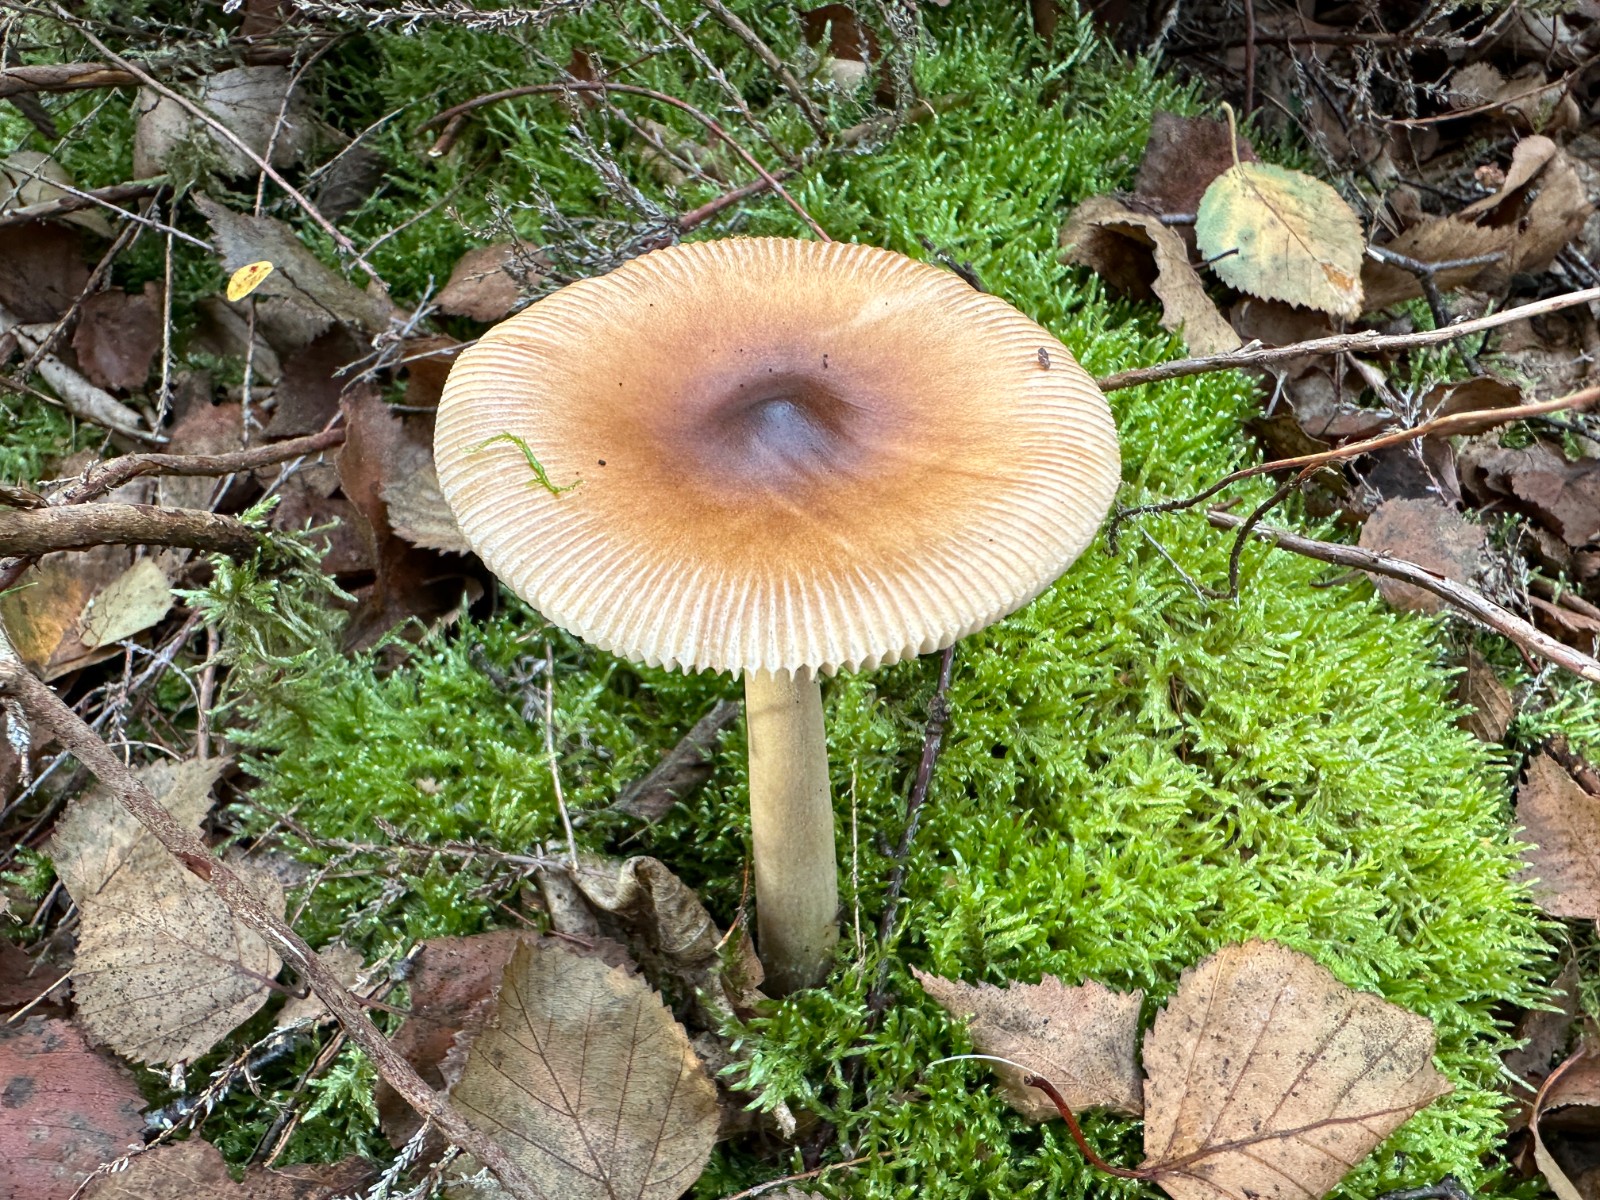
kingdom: Fungi
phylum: Basidiomycota
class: Agaricomycetes
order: Agaricales
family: Amanitaceae
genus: Amanita
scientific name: Amanita fulva
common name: brun kam-fluesvamp
